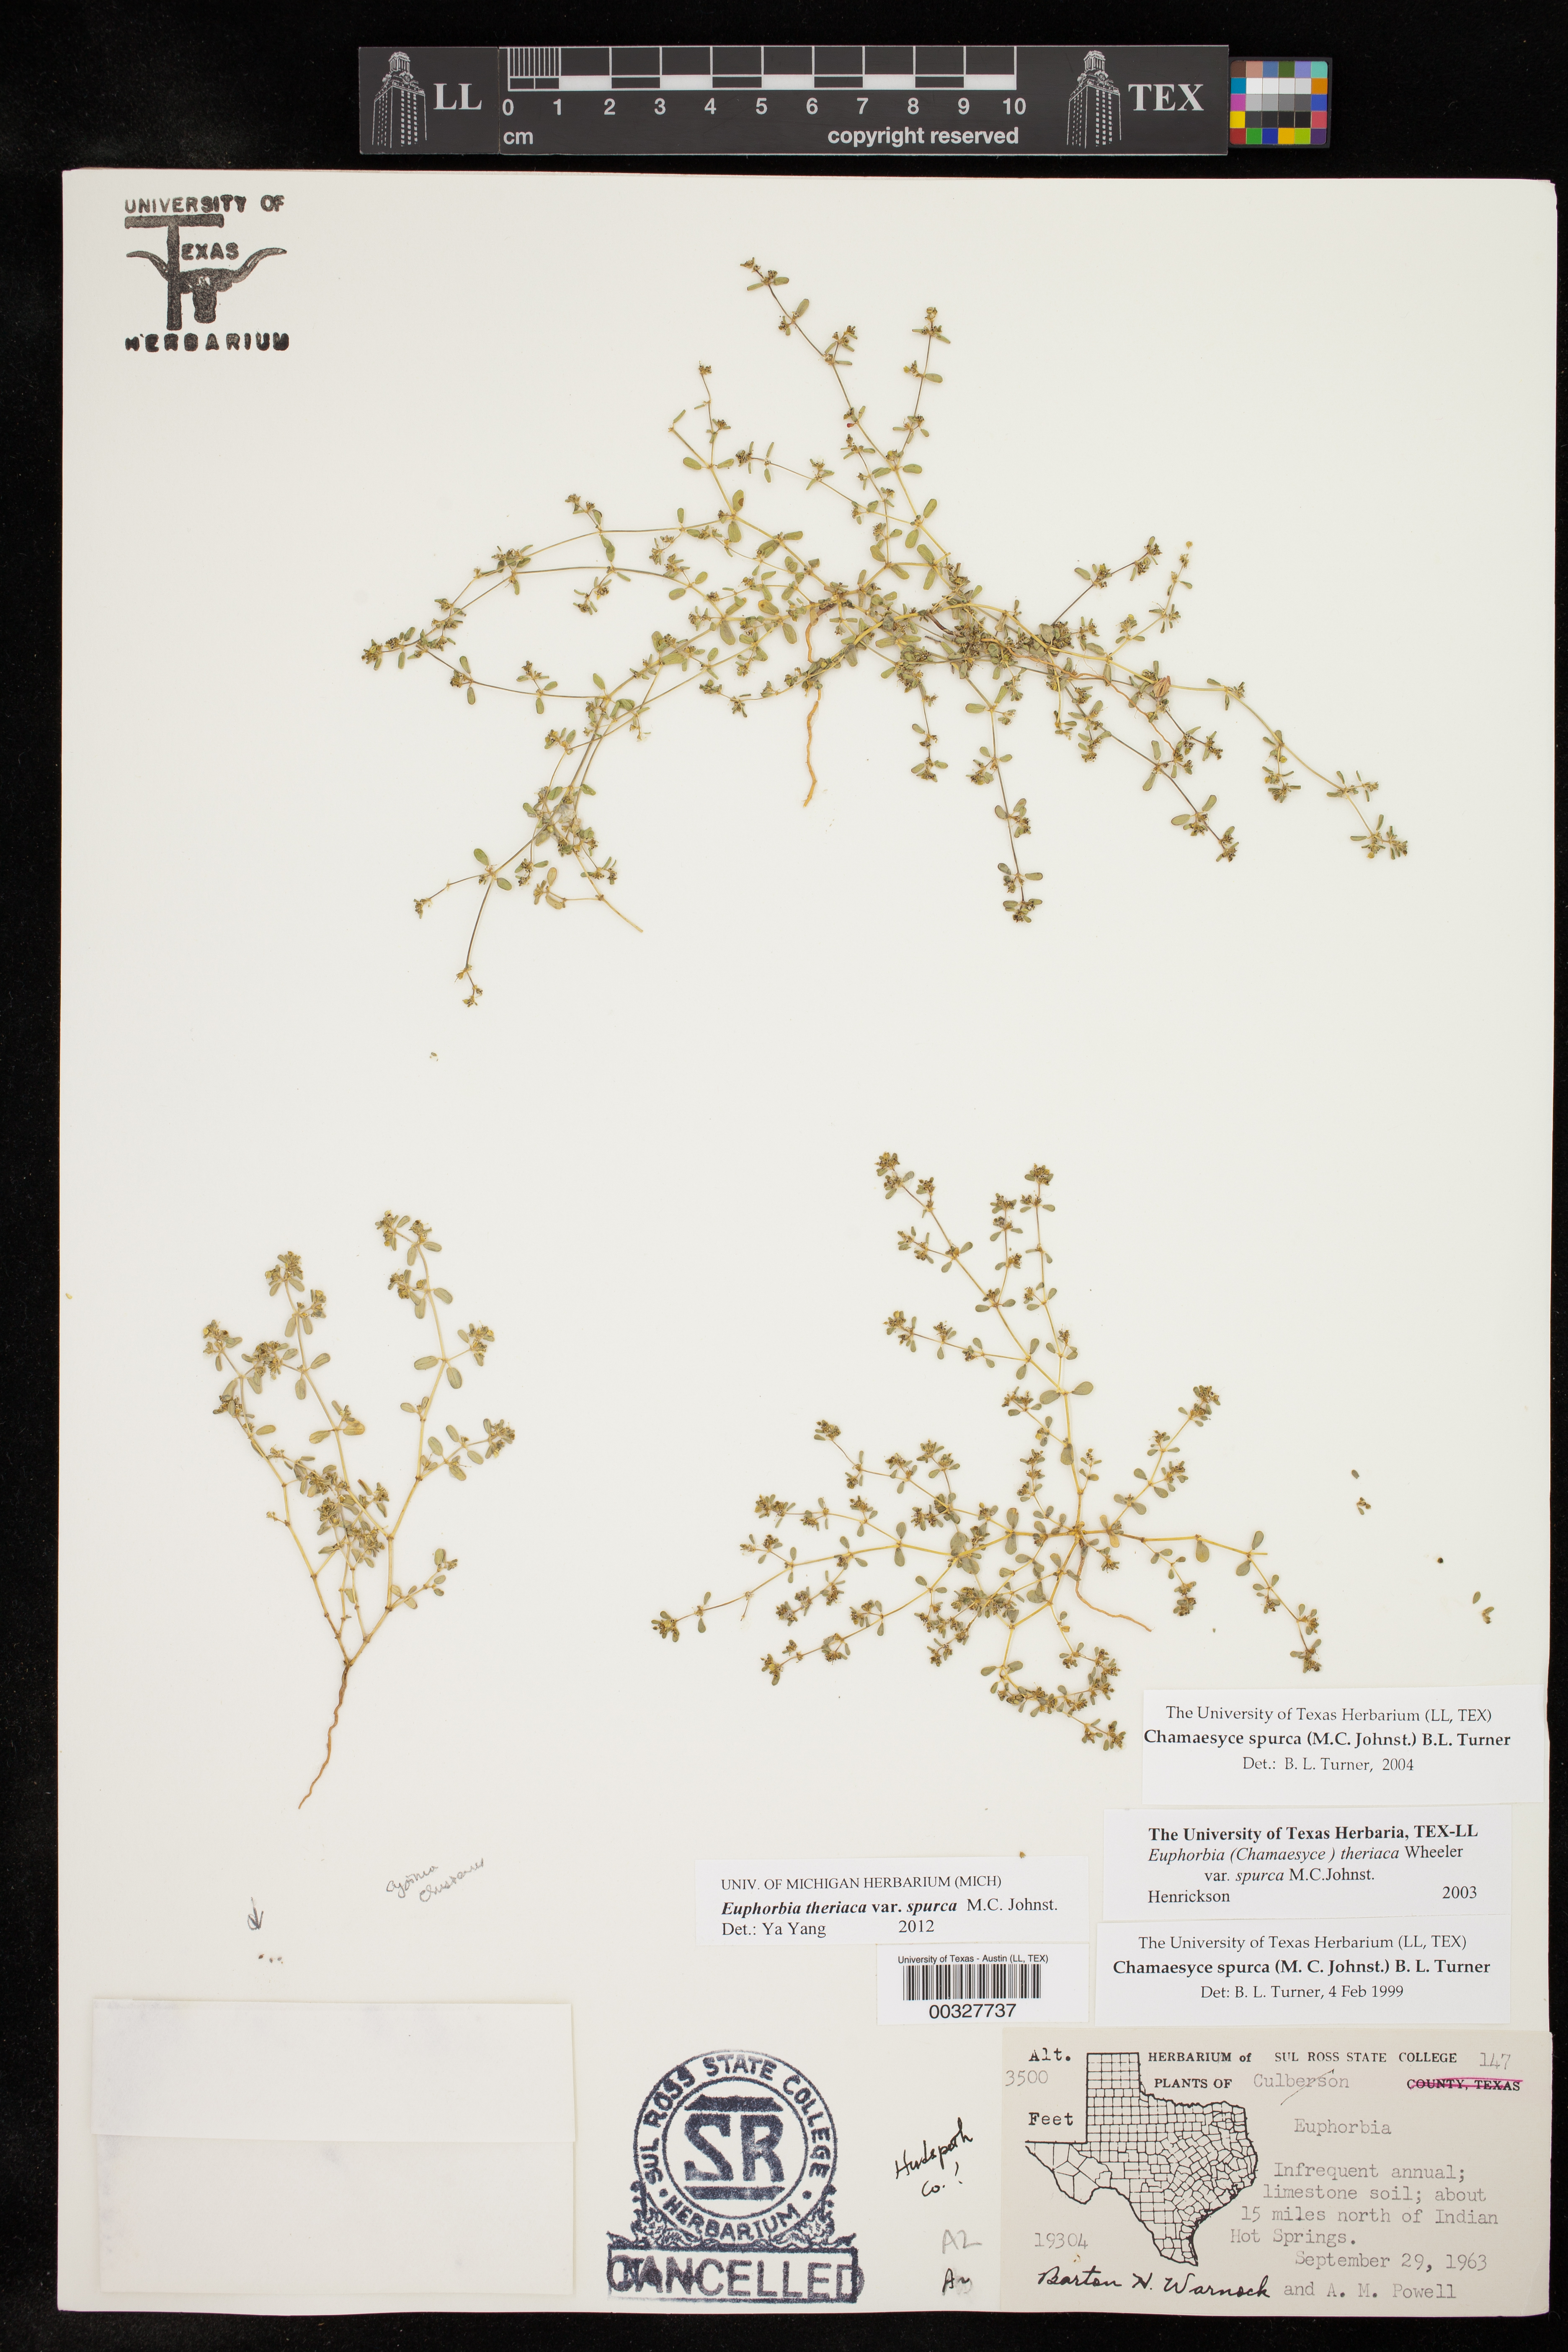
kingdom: Plantae
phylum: Tracheophyta
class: Magnoliopsida
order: Malpighiales
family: Euphorbiaceae
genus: Euphorbia
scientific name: Euphorbia spurca
